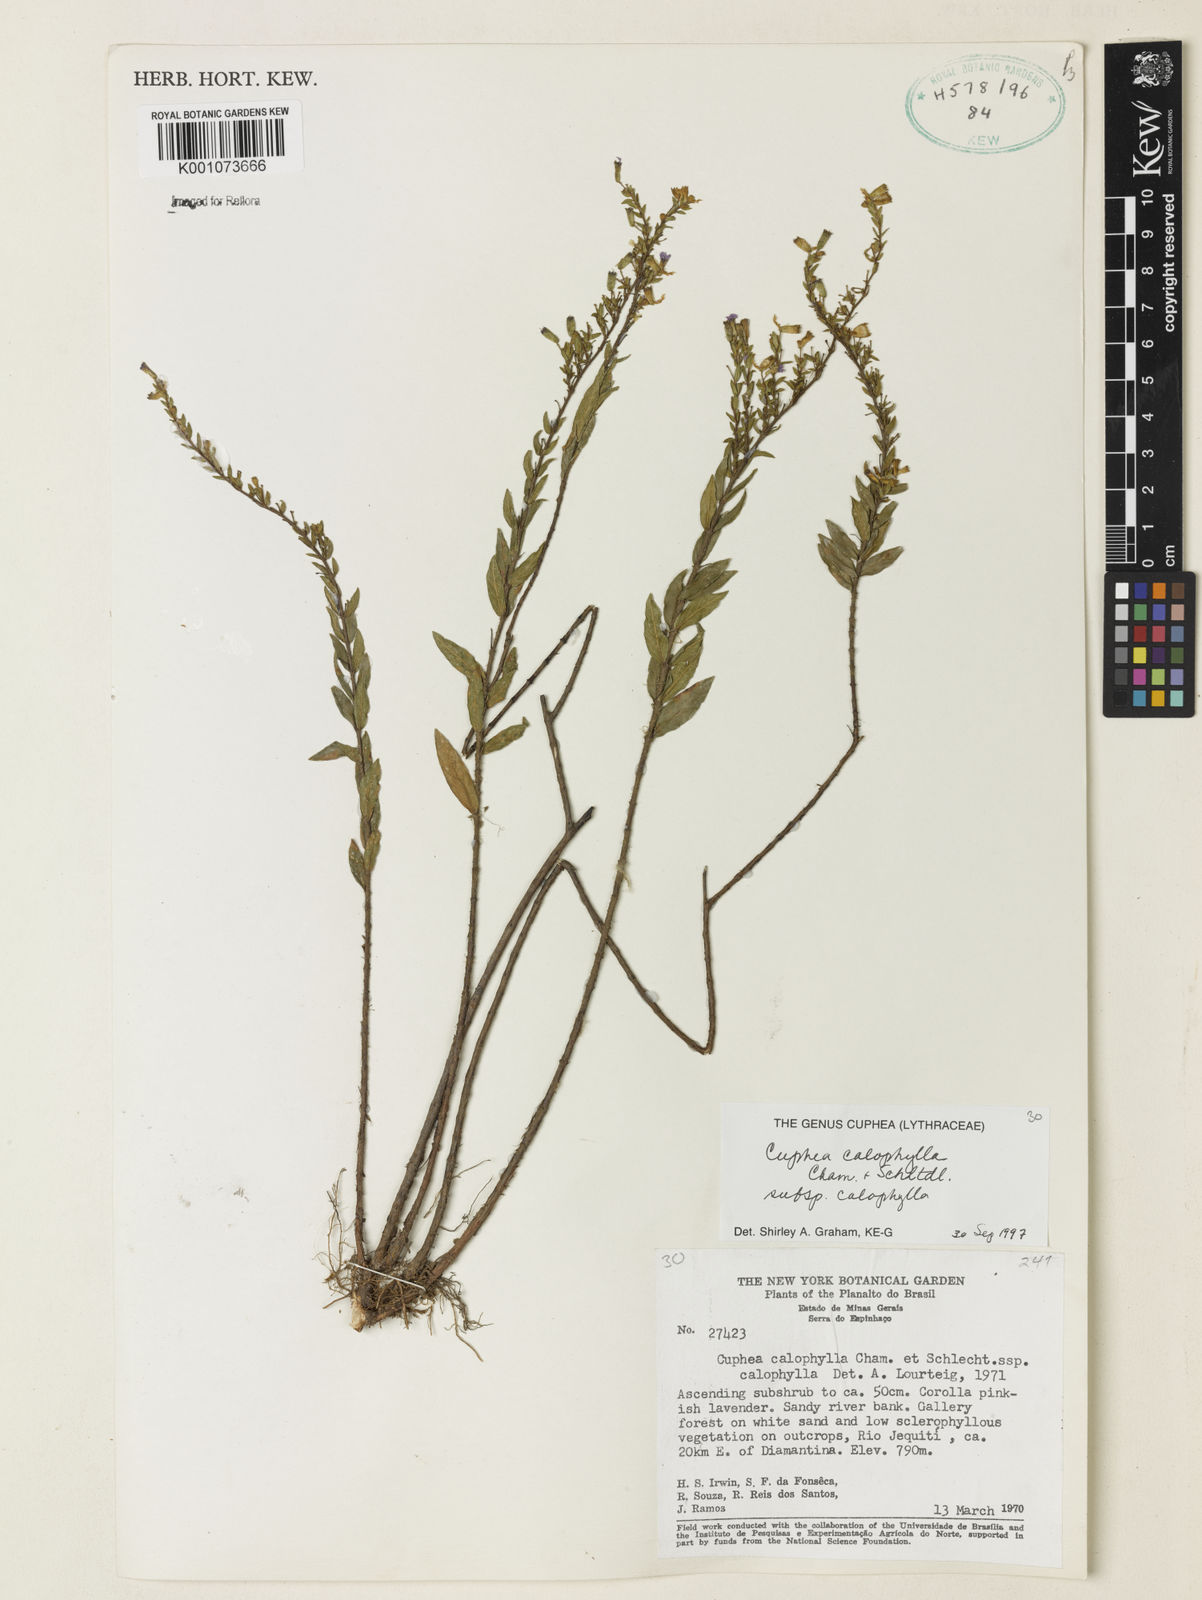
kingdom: Plantae
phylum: Tracheophyta
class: Magnoliopsida
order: Myrtales
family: Lythraceae
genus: Cuphea
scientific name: Cuphea calophylla
